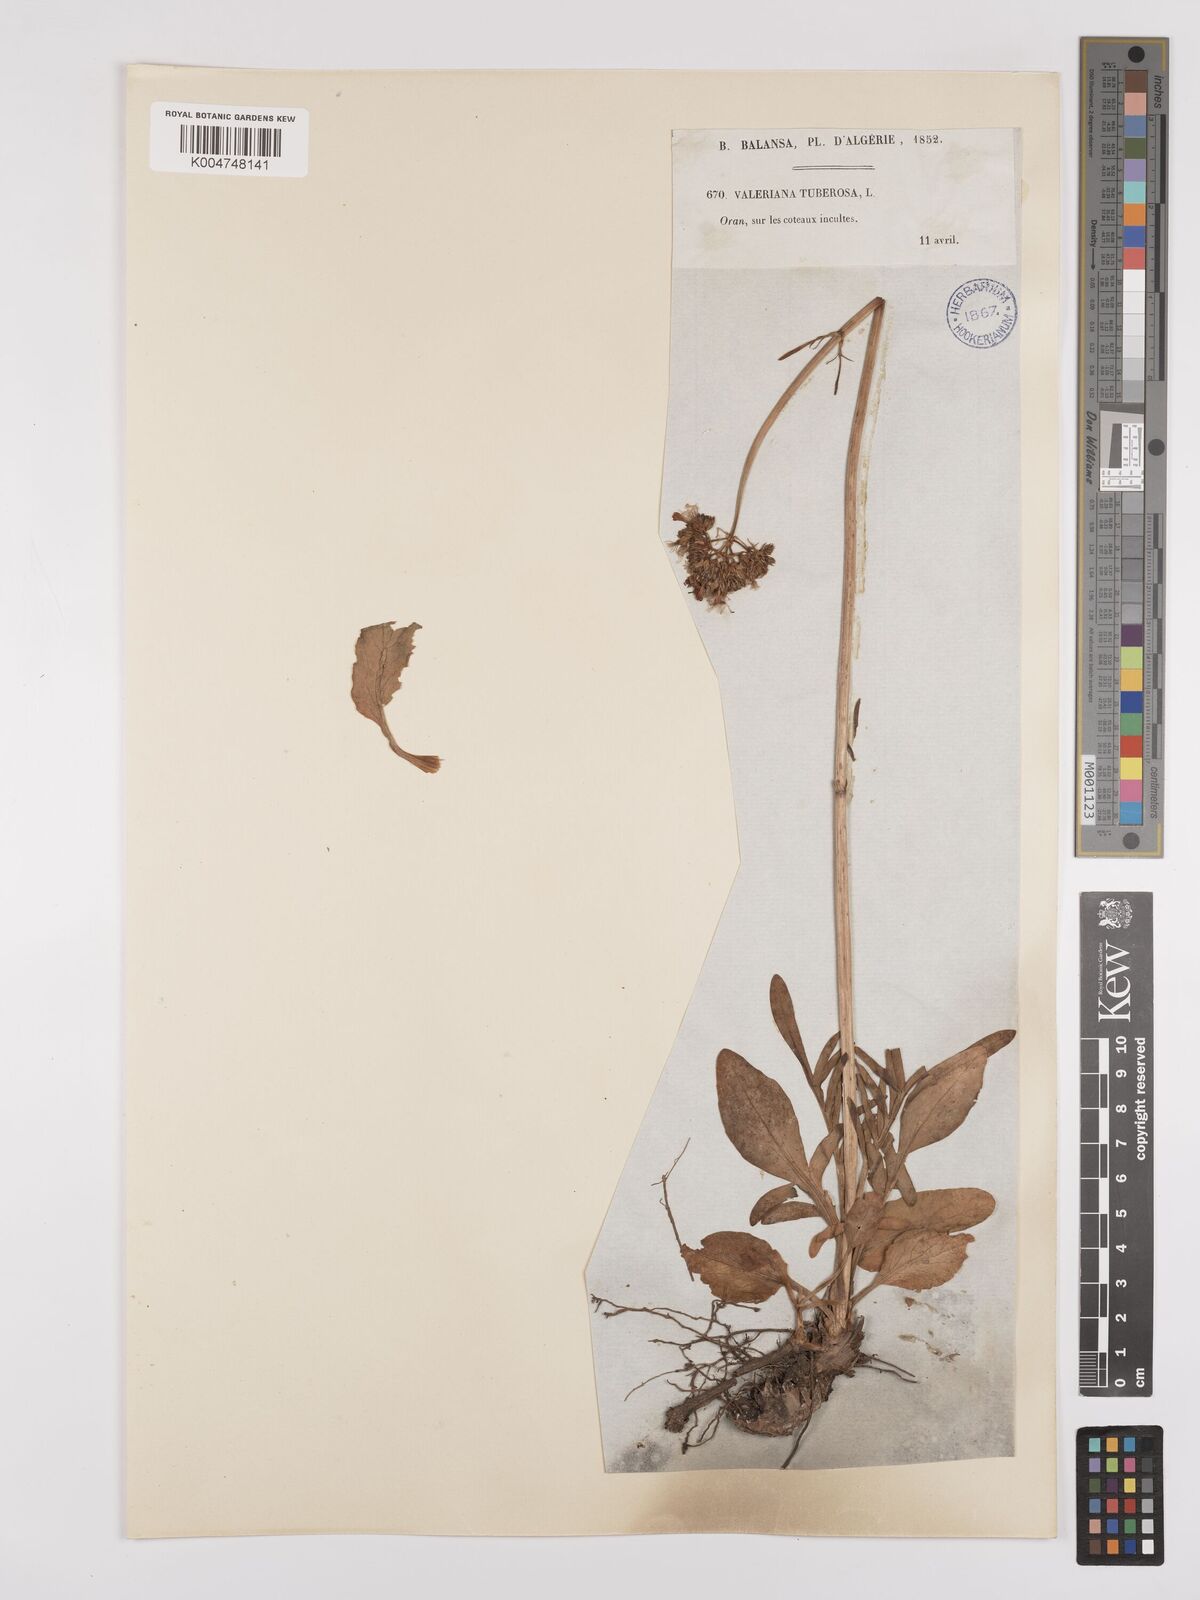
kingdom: Plantae
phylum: Tracheophyta
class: Magnoliopsida
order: Dipsacales
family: Caprifoliaceae
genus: Valeriana
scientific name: Valeriana tuberosa
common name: Tuberous valerian
